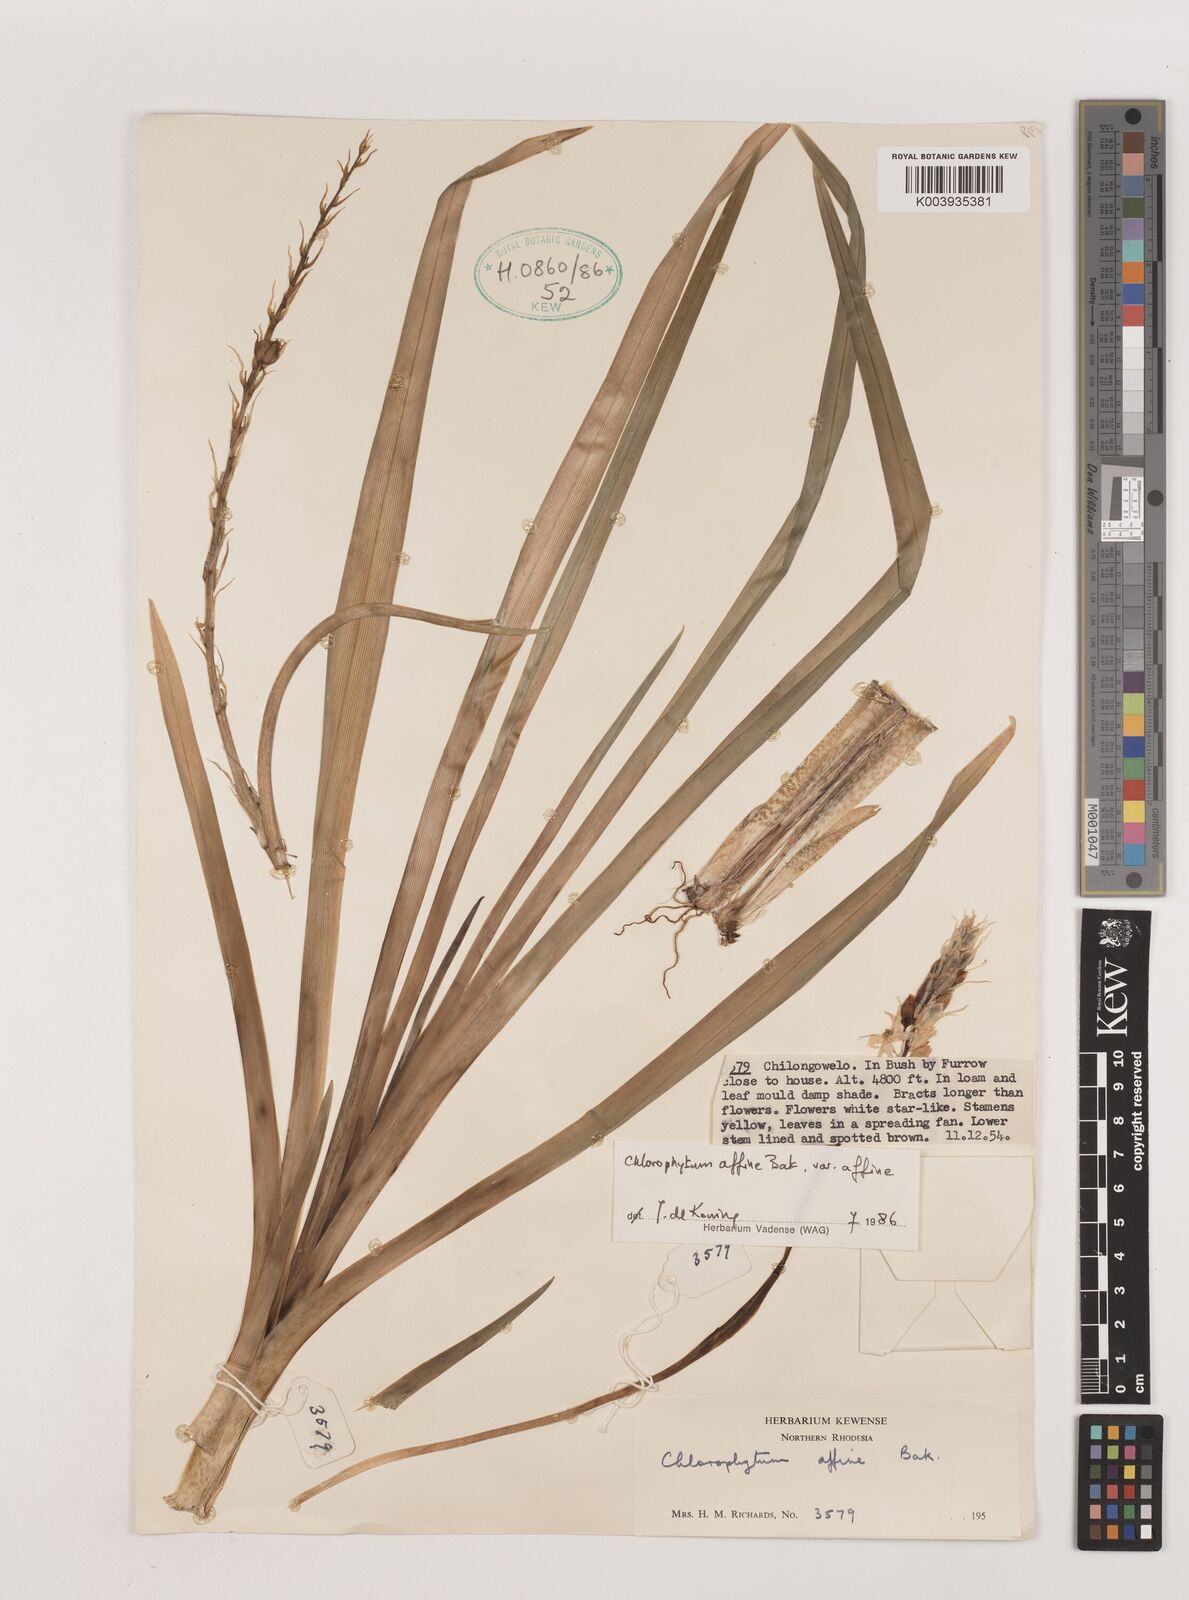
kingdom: Plantae
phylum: Tracheophyta
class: Liliopsida
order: Asparagales
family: Asparagaceae
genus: Chlorophytum
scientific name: Chlorophytum affine
